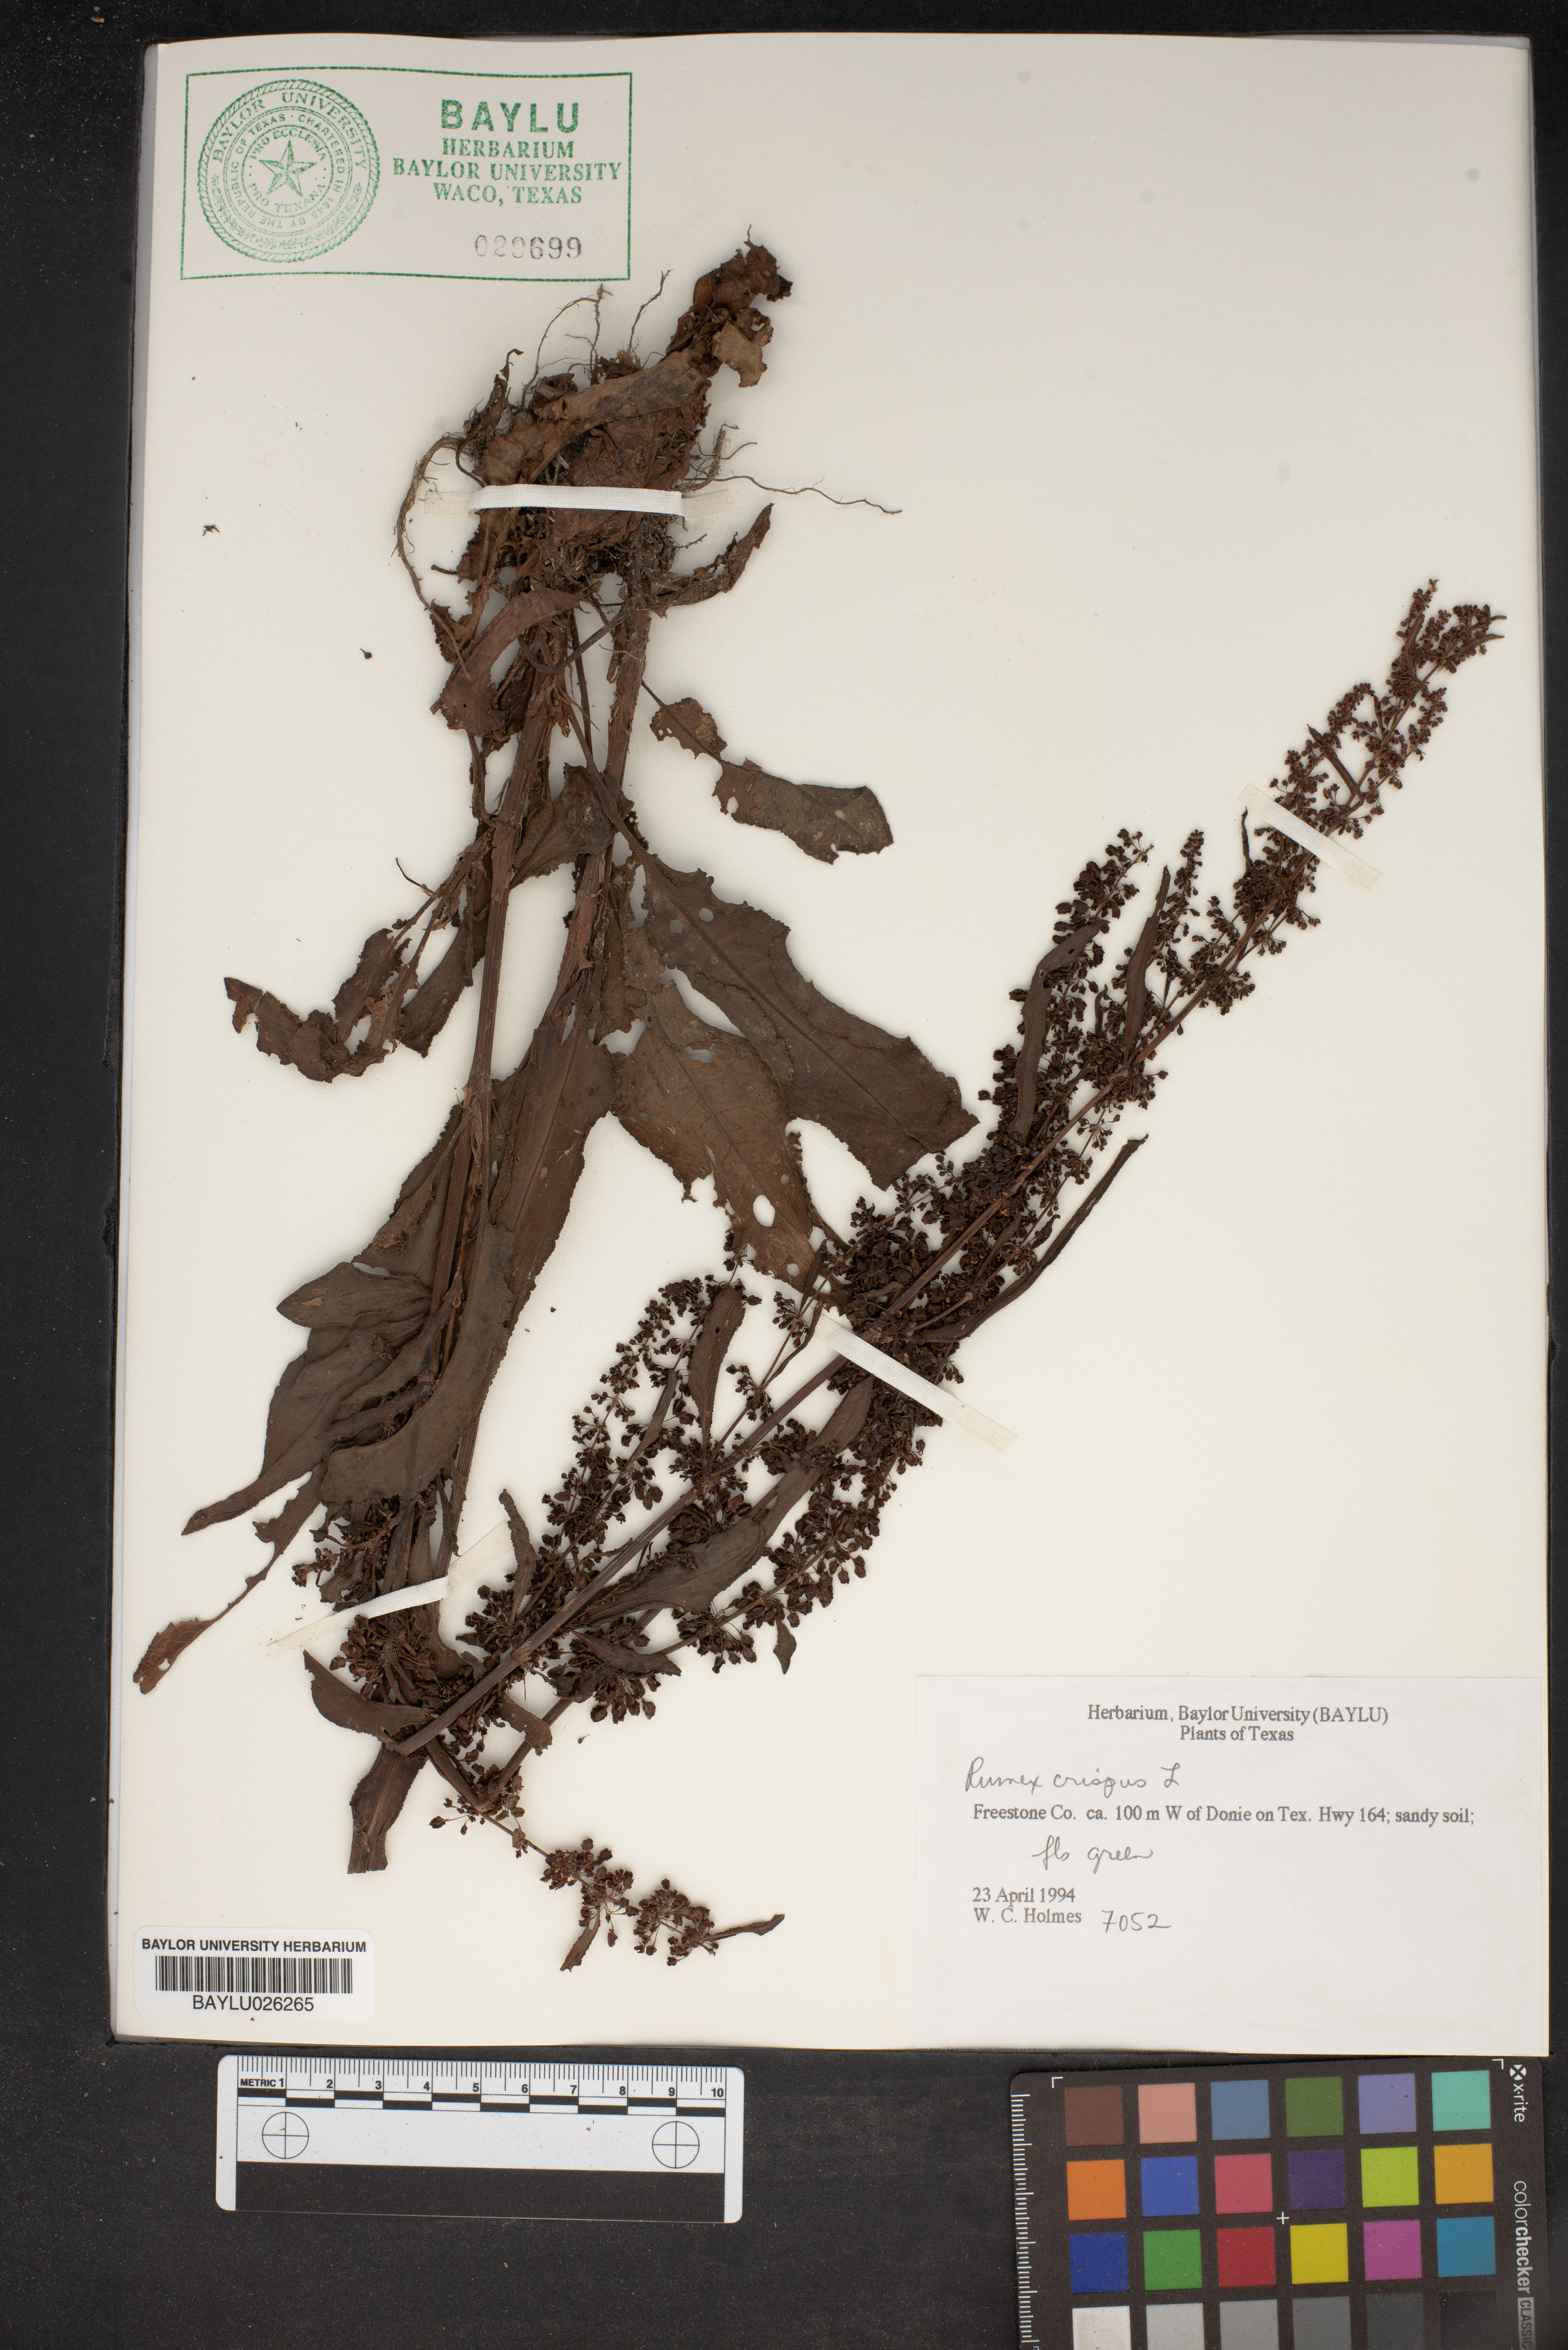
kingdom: Plantae
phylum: Tracheophyta
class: Magnoliopsida
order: Caryophyllales
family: Polygonaceae
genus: Rumex
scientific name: Rumex crispus
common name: Curled dock
